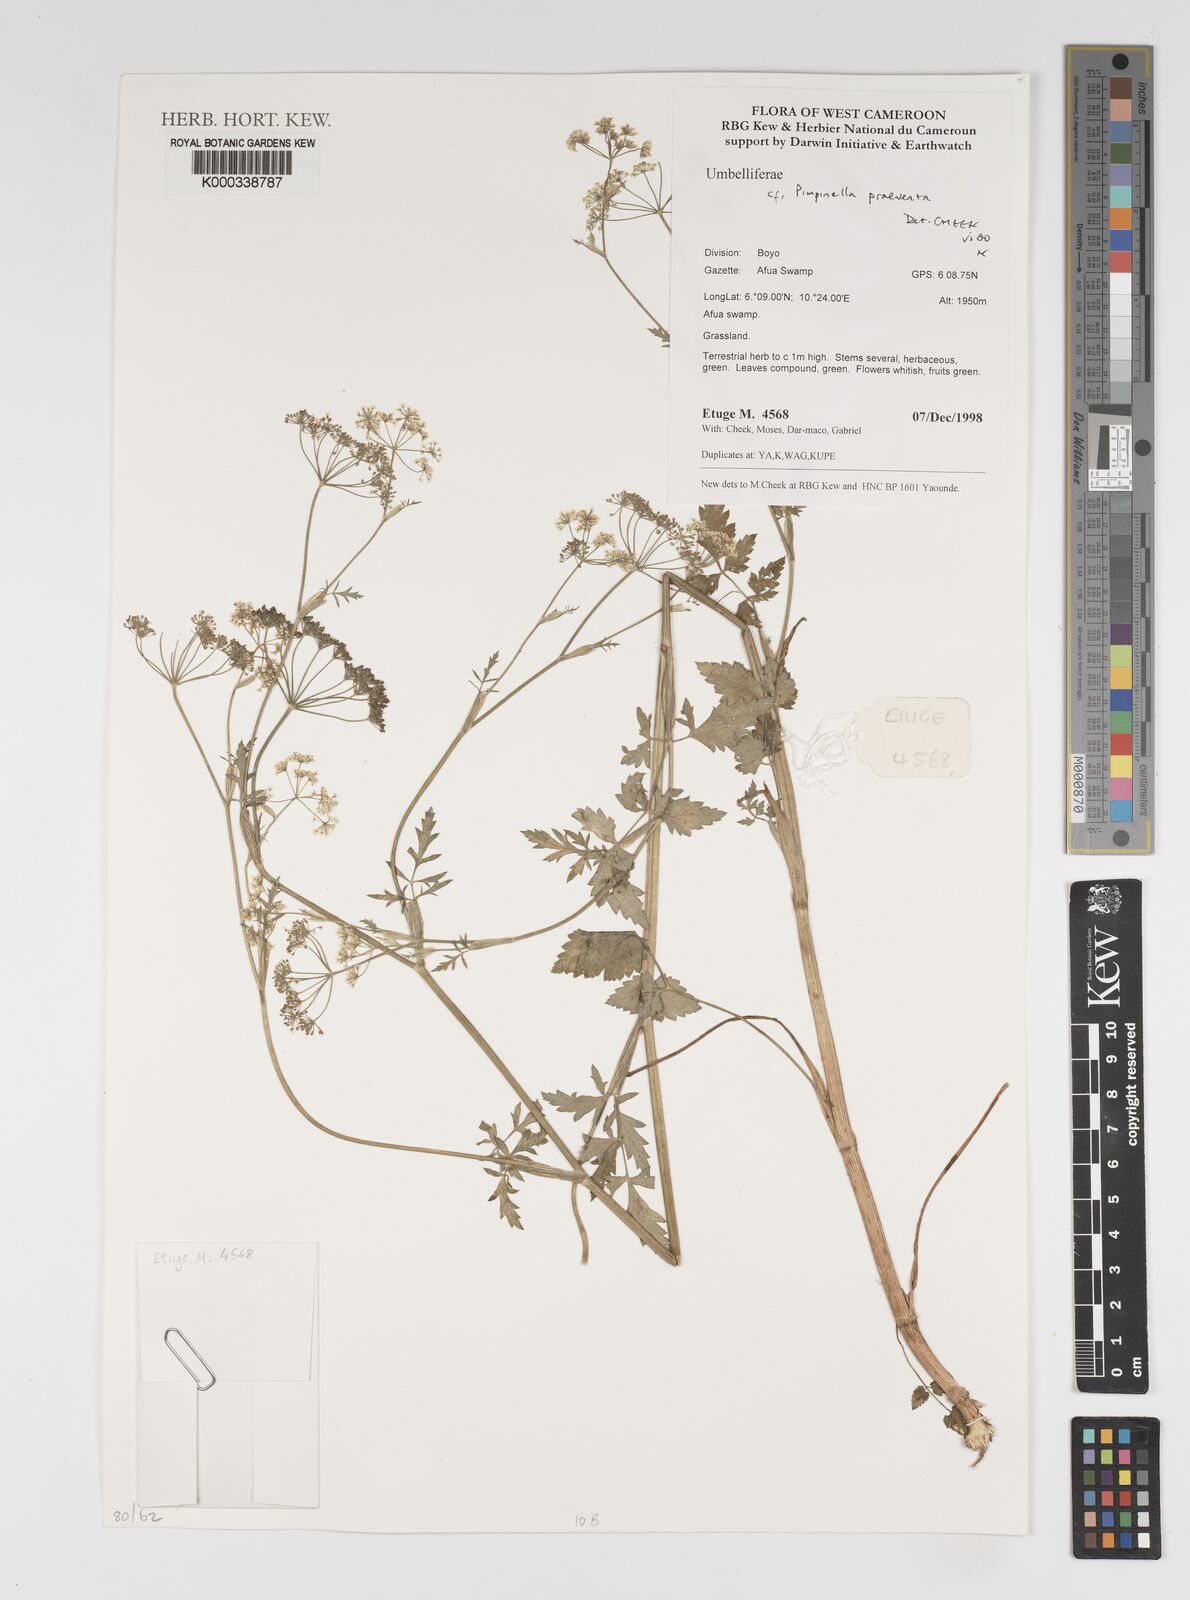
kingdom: Plantae
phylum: Tracheophyta
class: Magnoliopsida
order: Apiales
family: Apiaceae
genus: Pimpinella
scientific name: Pimpinella hirtella
